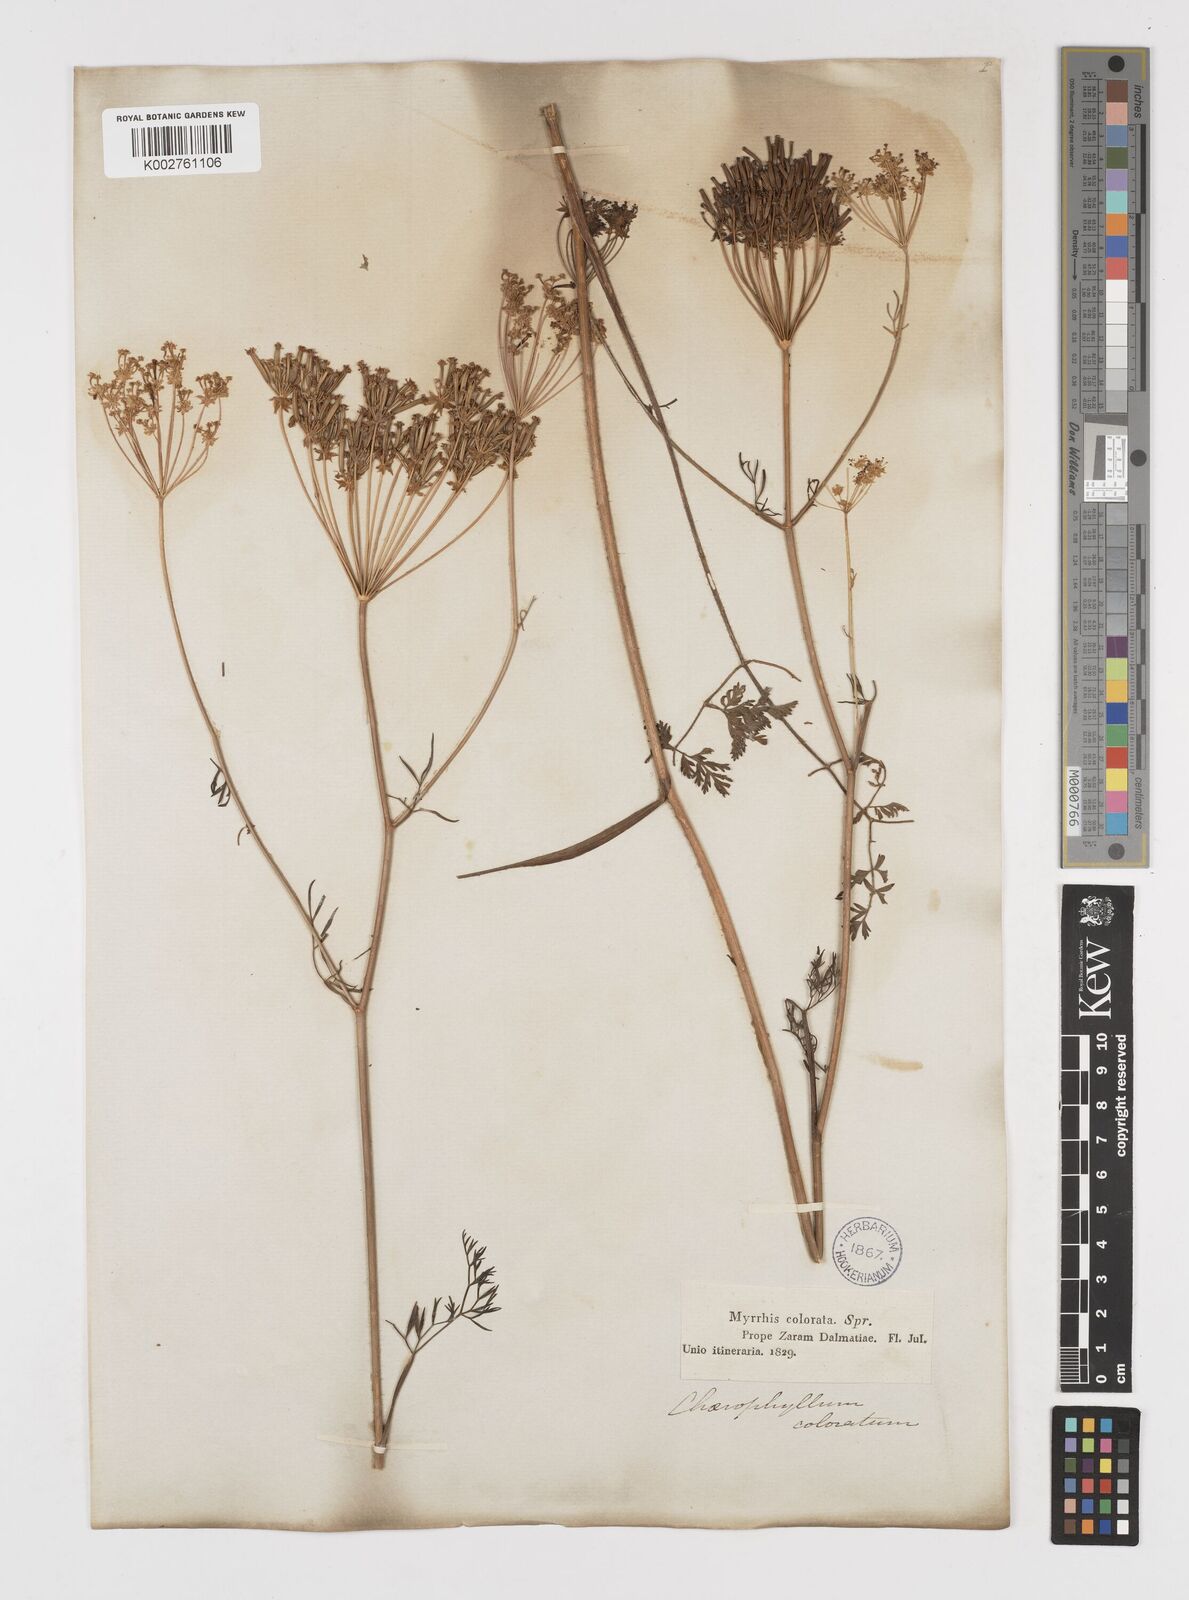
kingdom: Plantae
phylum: Tracheophyta
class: Magnoliopsida
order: Apiales
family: Apiaceae
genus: Chaerophyllum
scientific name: Chaerophyllum coloratum
